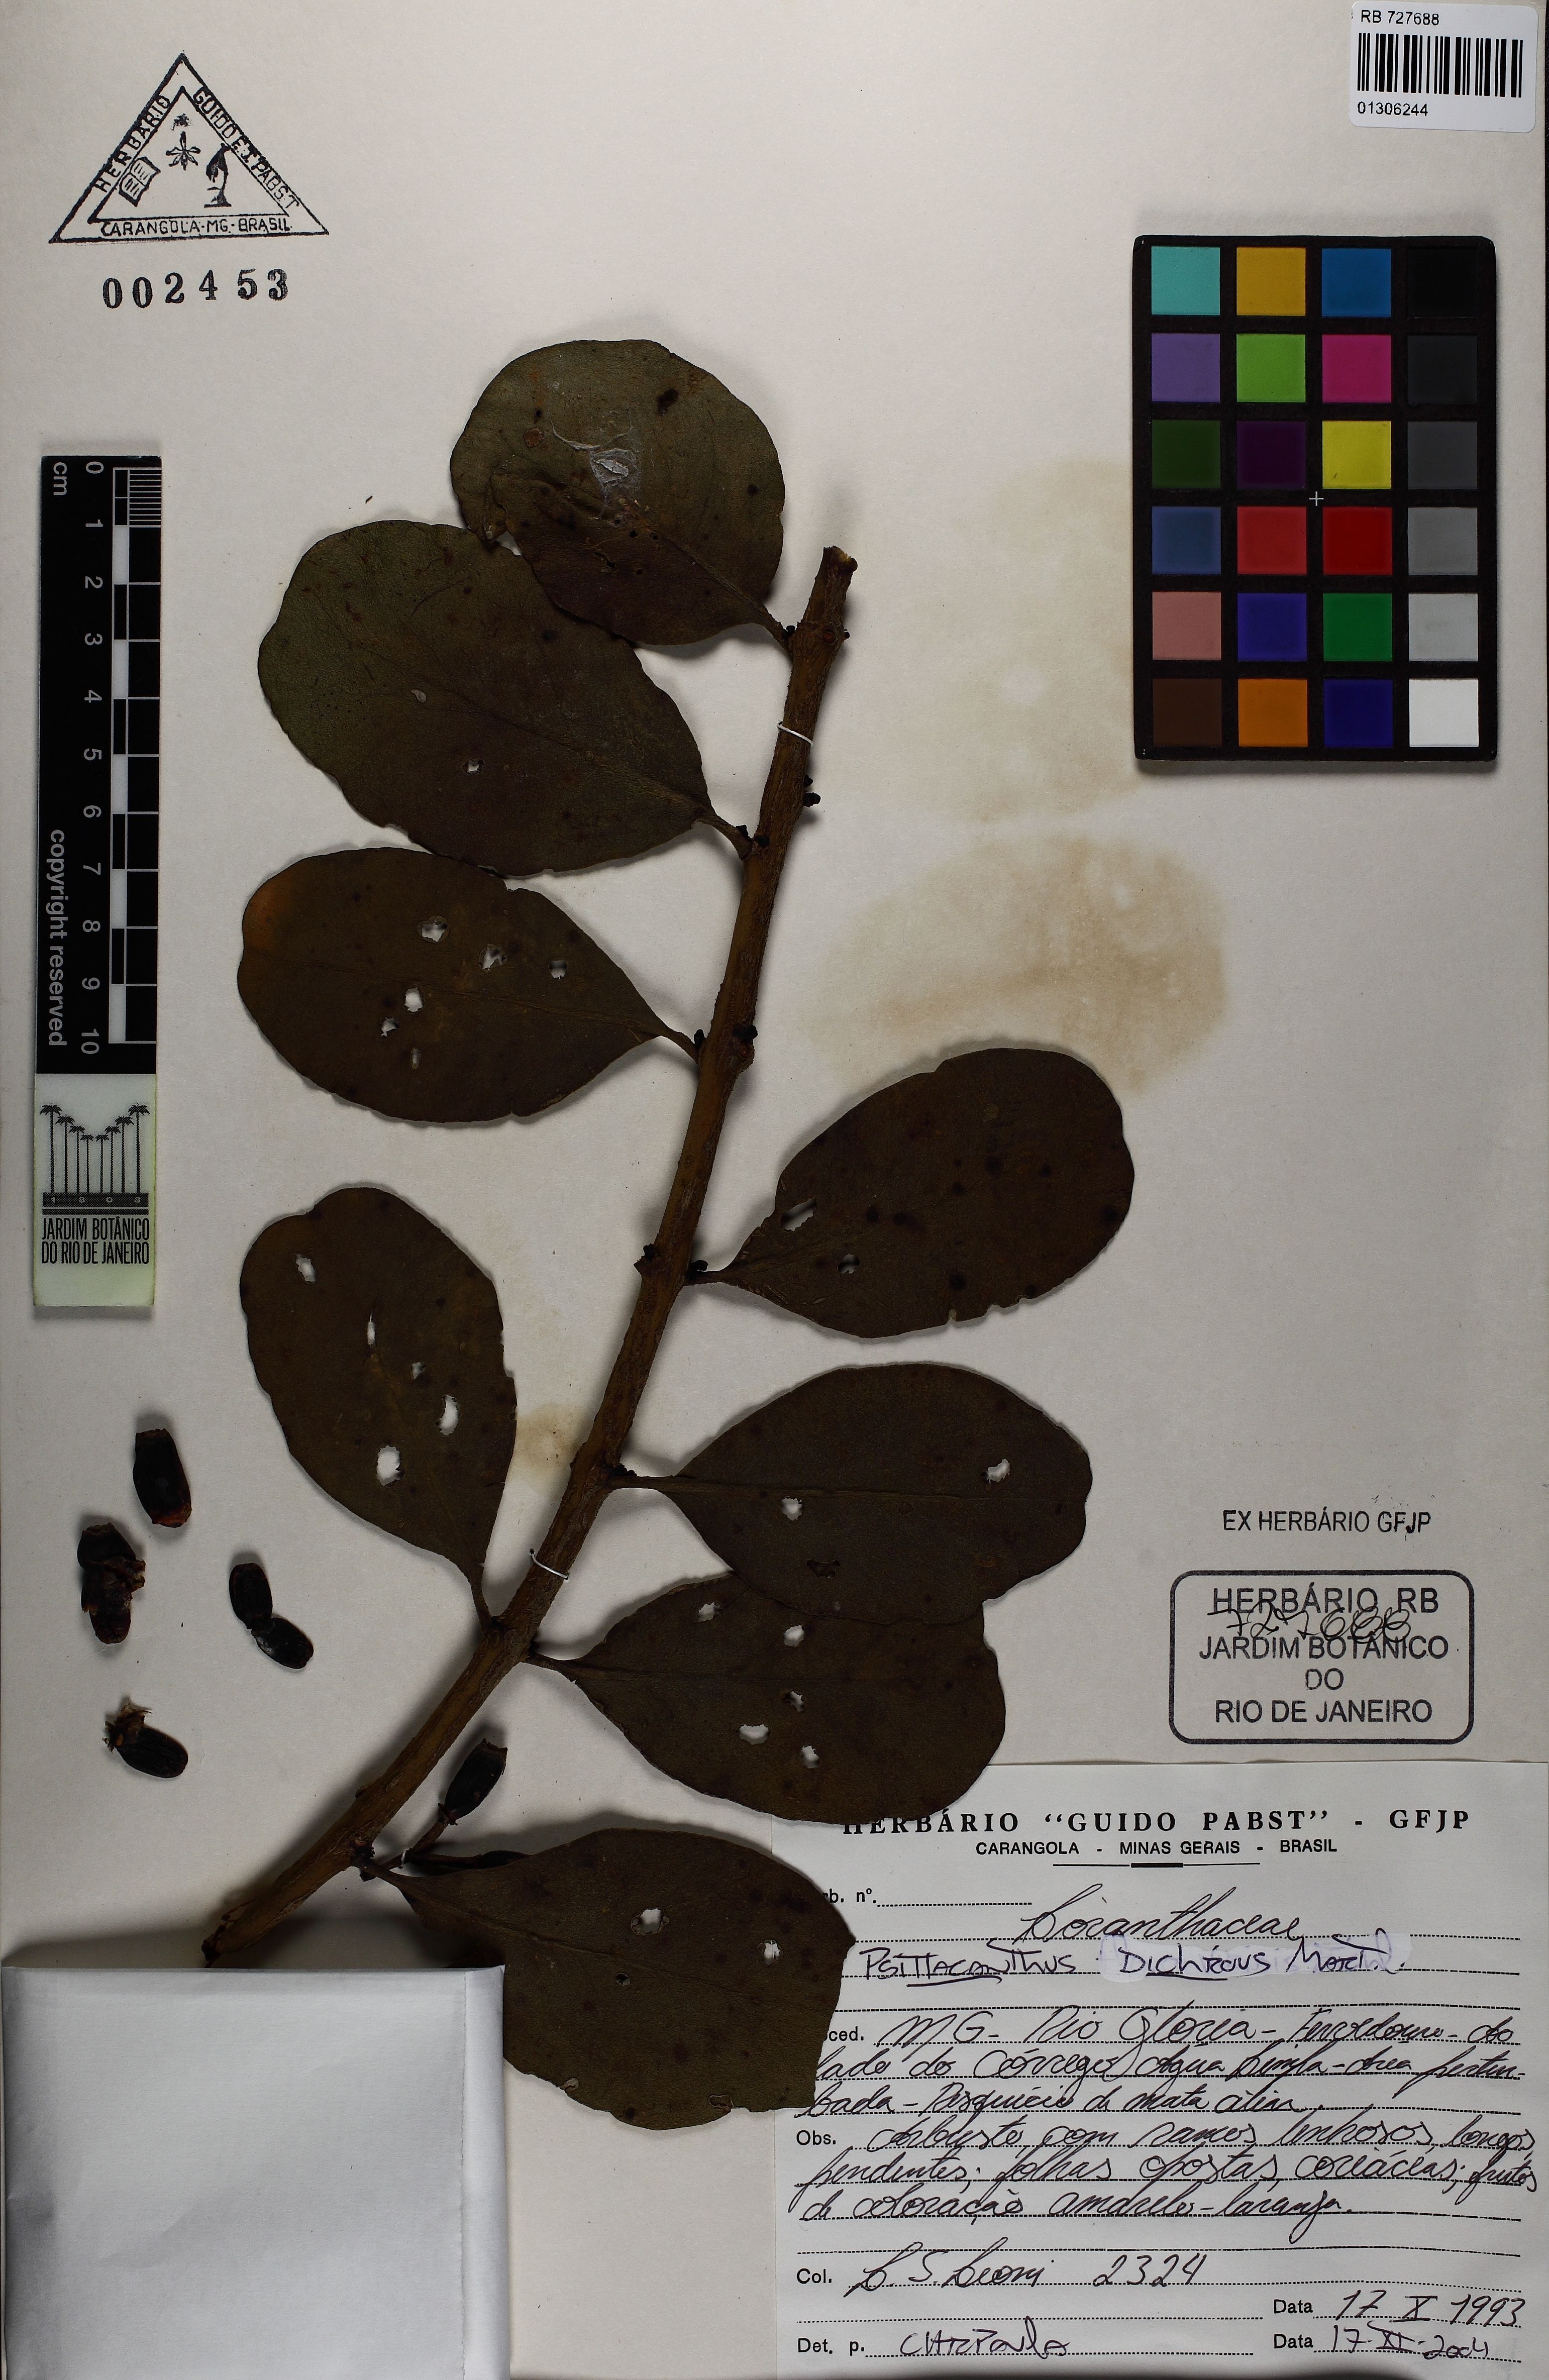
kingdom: Plantae
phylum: Tracheophyta
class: Magnoliopsida
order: Santalales
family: Loranthaceae
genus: Psittacanthus
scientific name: Psittacanthus dichroos
